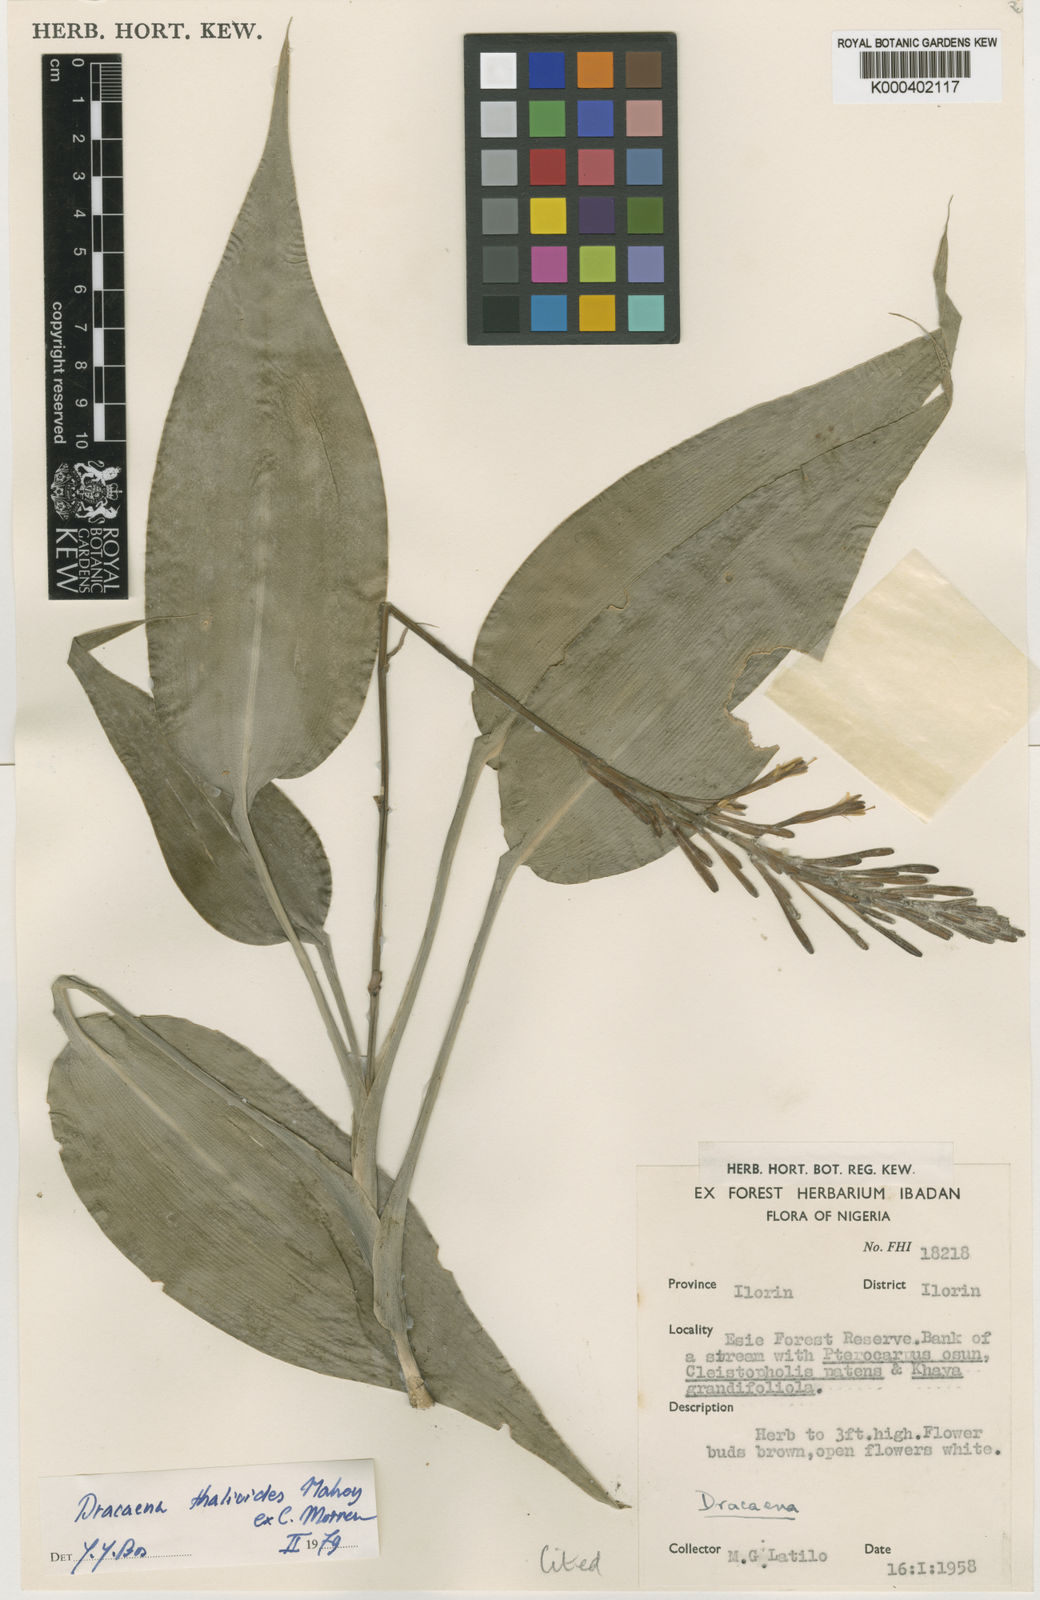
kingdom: Plantae
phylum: Tracheophyta
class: Liliopsida
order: Asparagales
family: Asparagaceae
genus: Dracaena
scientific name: Dracaena kindtiana
